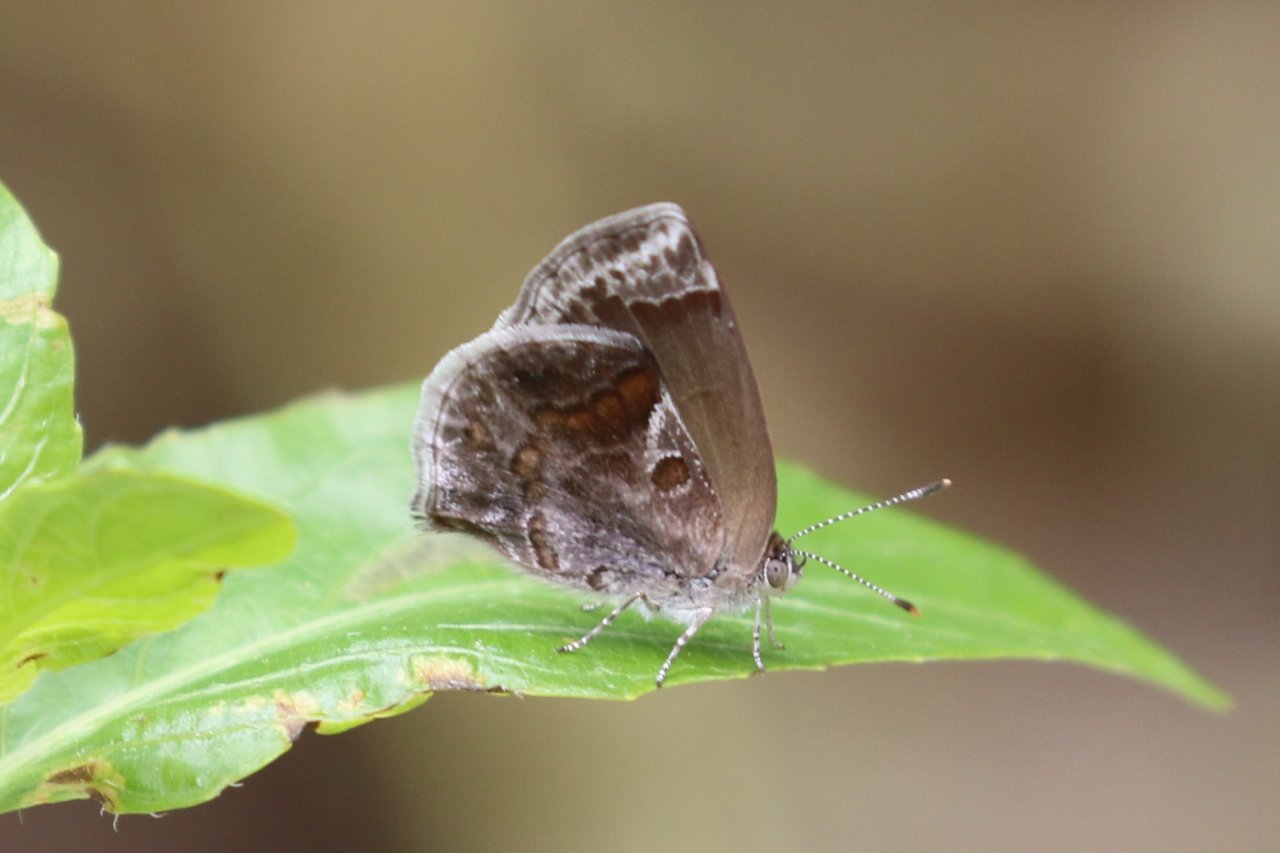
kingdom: Animalia
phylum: Arthropoda
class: Insecta
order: Lepidoptera
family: Lycaenidae
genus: Strymon
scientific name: Strymon bazochii
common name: Lantana Scrub-Hairstreak
